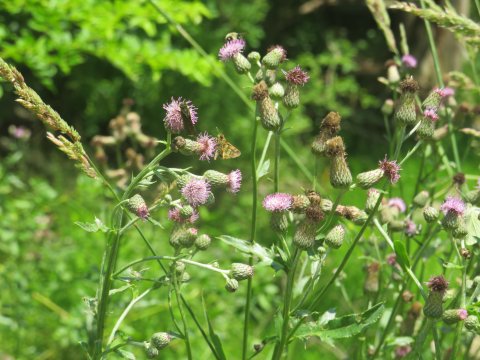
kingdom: Animalia
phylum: Arthropoda
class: Insecta
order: Lepidoptera
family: Hesperiidae
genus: Polites
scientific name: Polites coras
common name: Peck's Skipper
